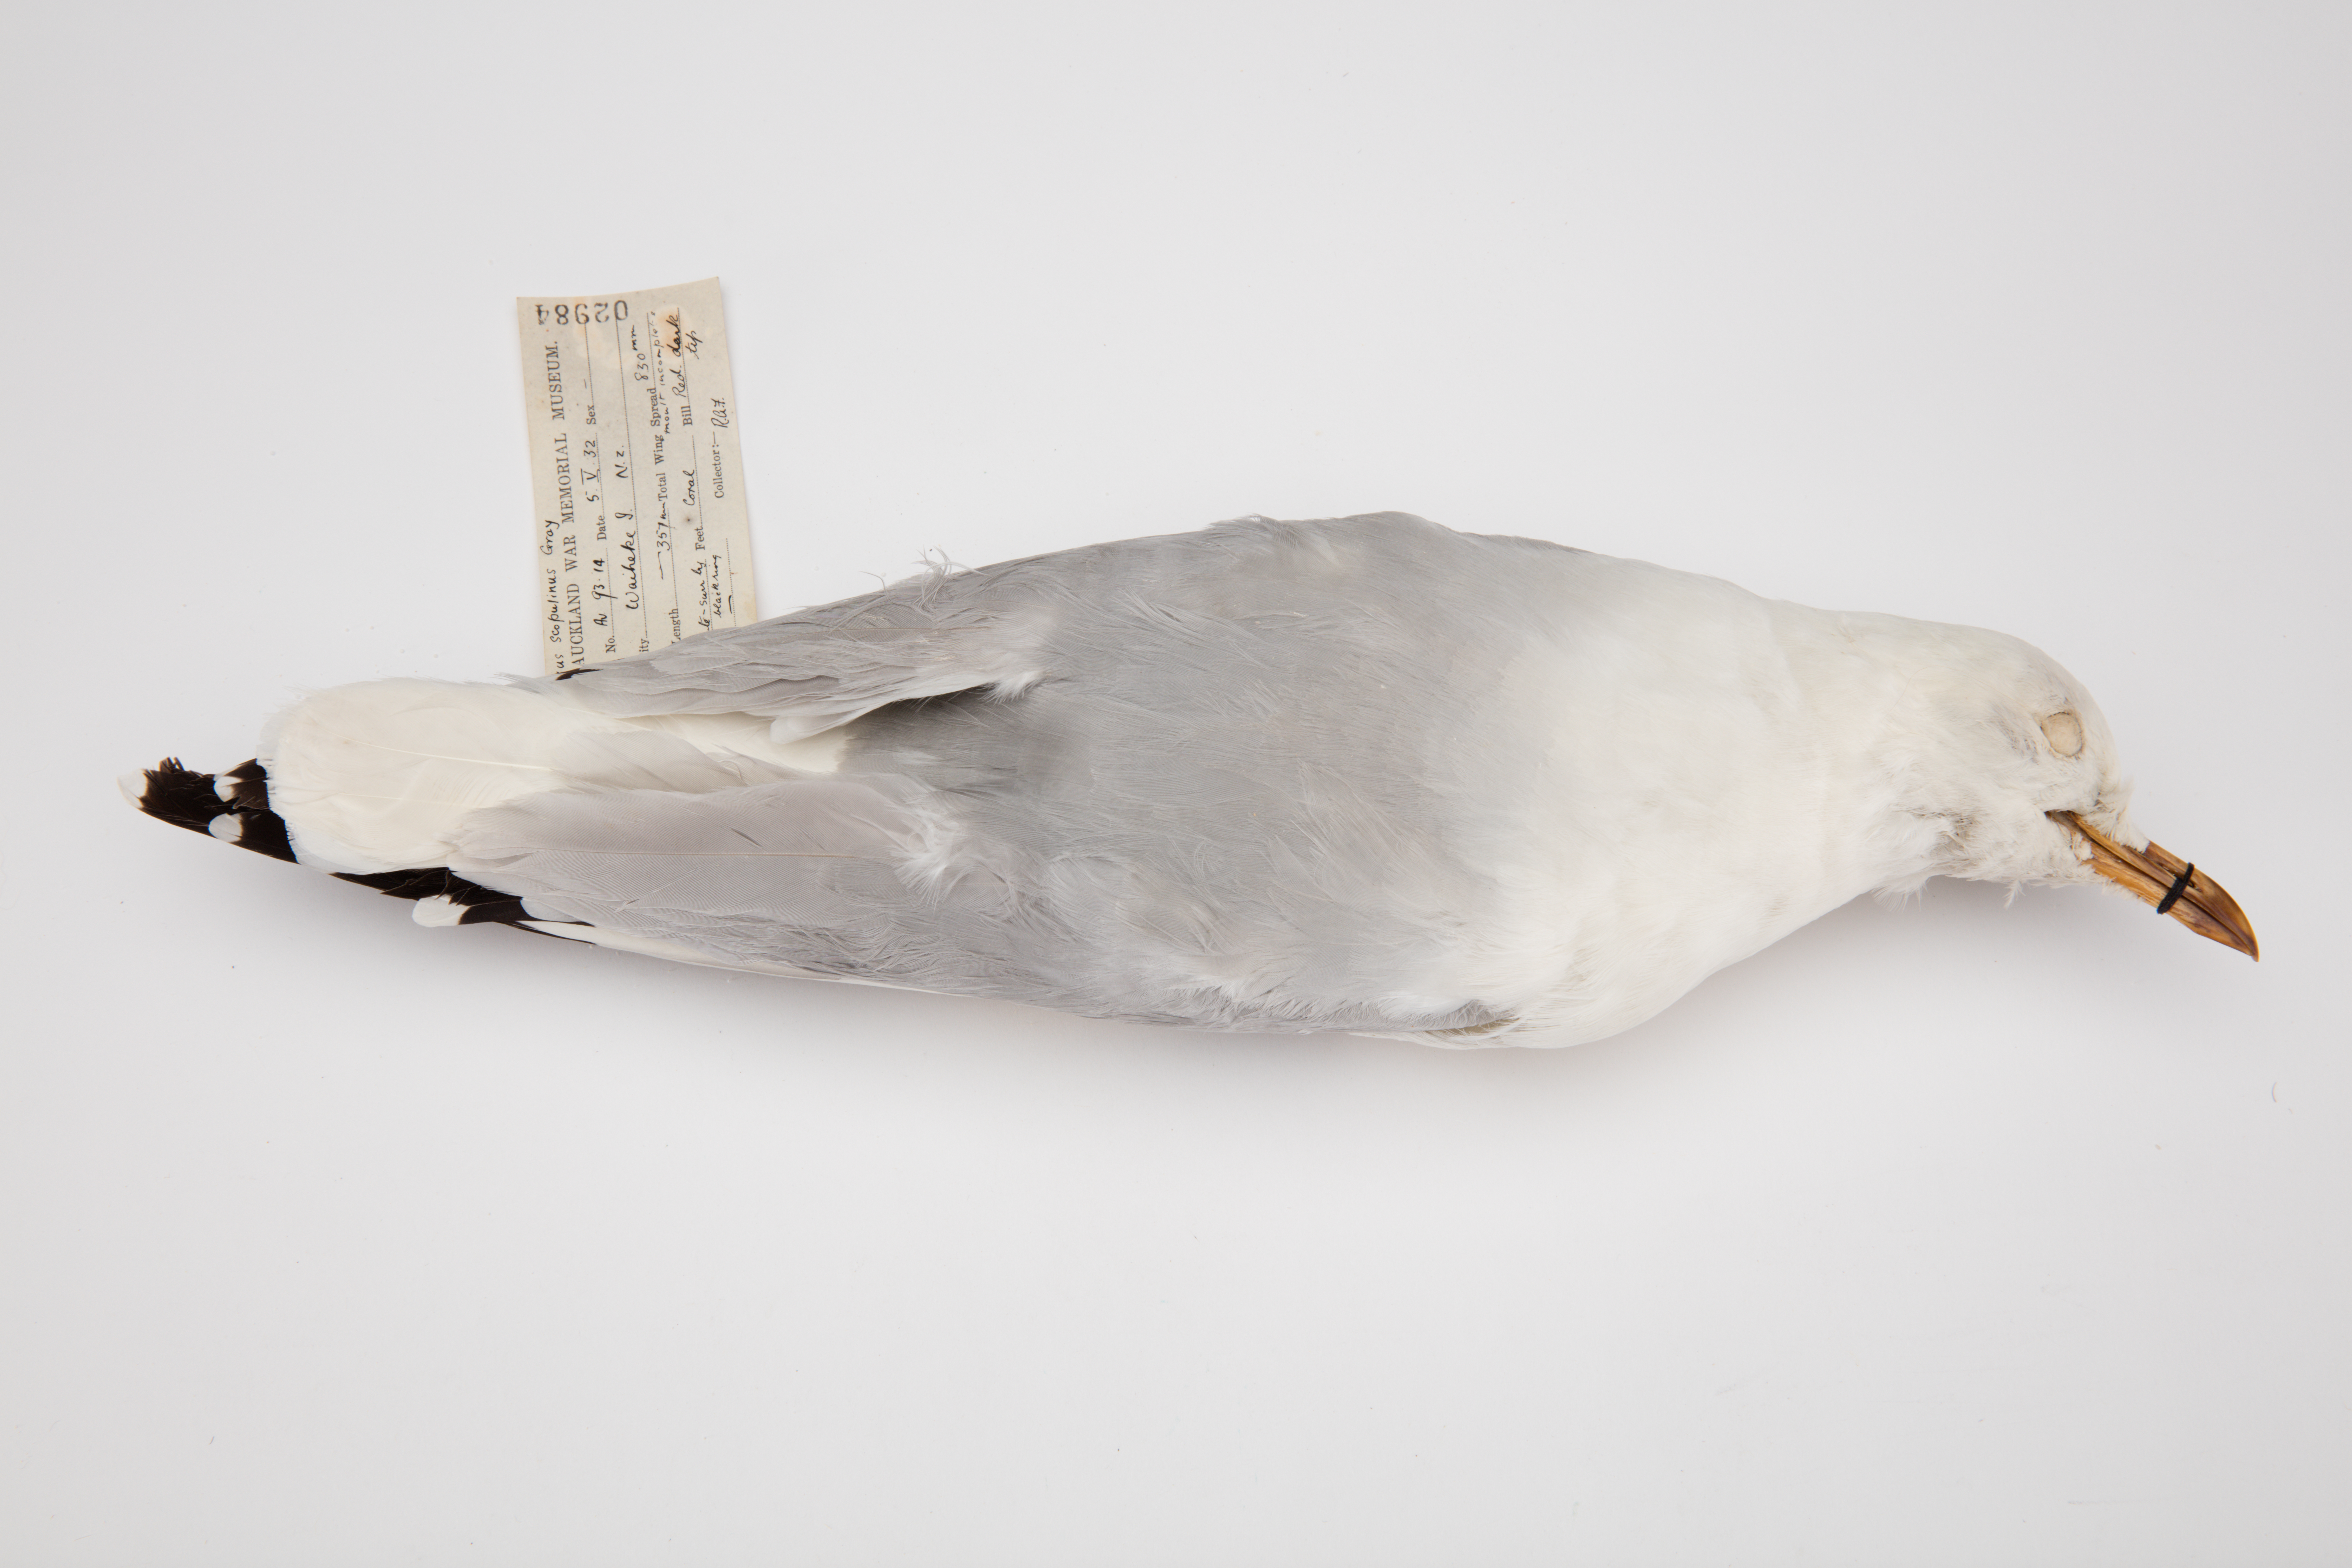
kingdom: Animalia
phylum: Chordata
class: Aves
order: Charadriiformes
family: Laridae
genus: Chroicocephalus
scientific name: Chroicocephalus novaehollandiae
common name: Silver gull
